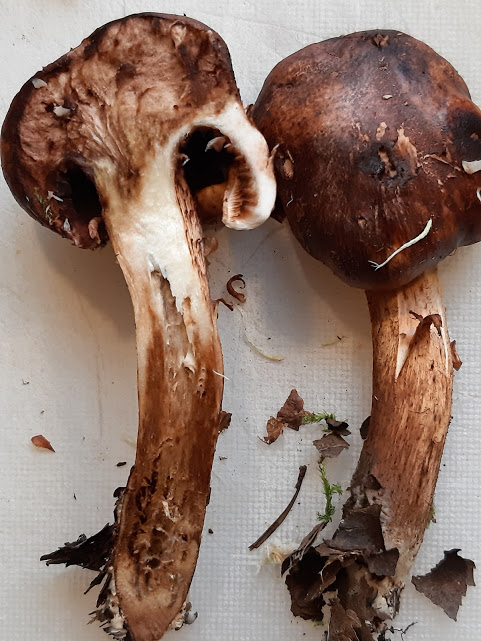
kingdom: Fungi
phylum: Basidiomycota
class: Agaricomycetes
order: Agaricales
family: Tricholomataceae
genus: Tricholoma
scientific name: Tricholoma
